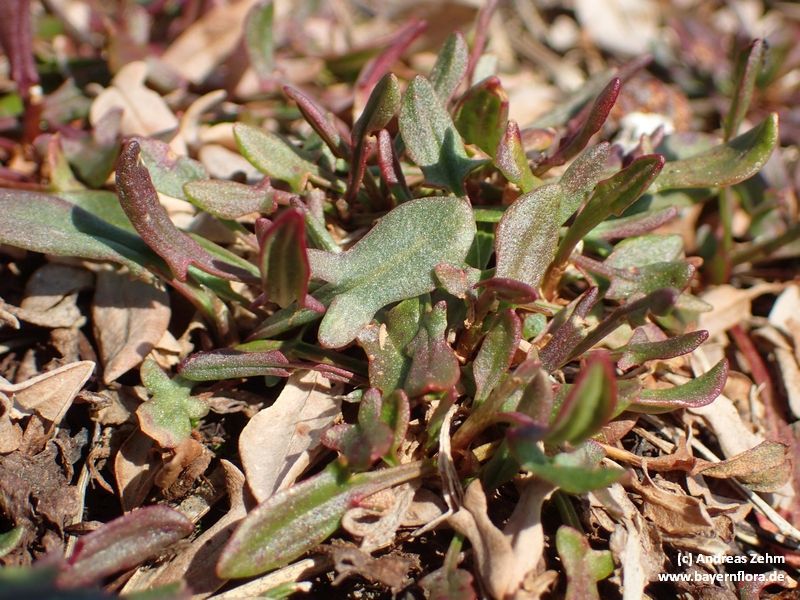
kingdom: Plantae
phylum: Tracheophyta
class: Magnoliopsida
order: Caryophyllales
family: Polygonaceae
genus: Rumex
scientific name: Rumex acetosella
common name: Common sheep sorrel
